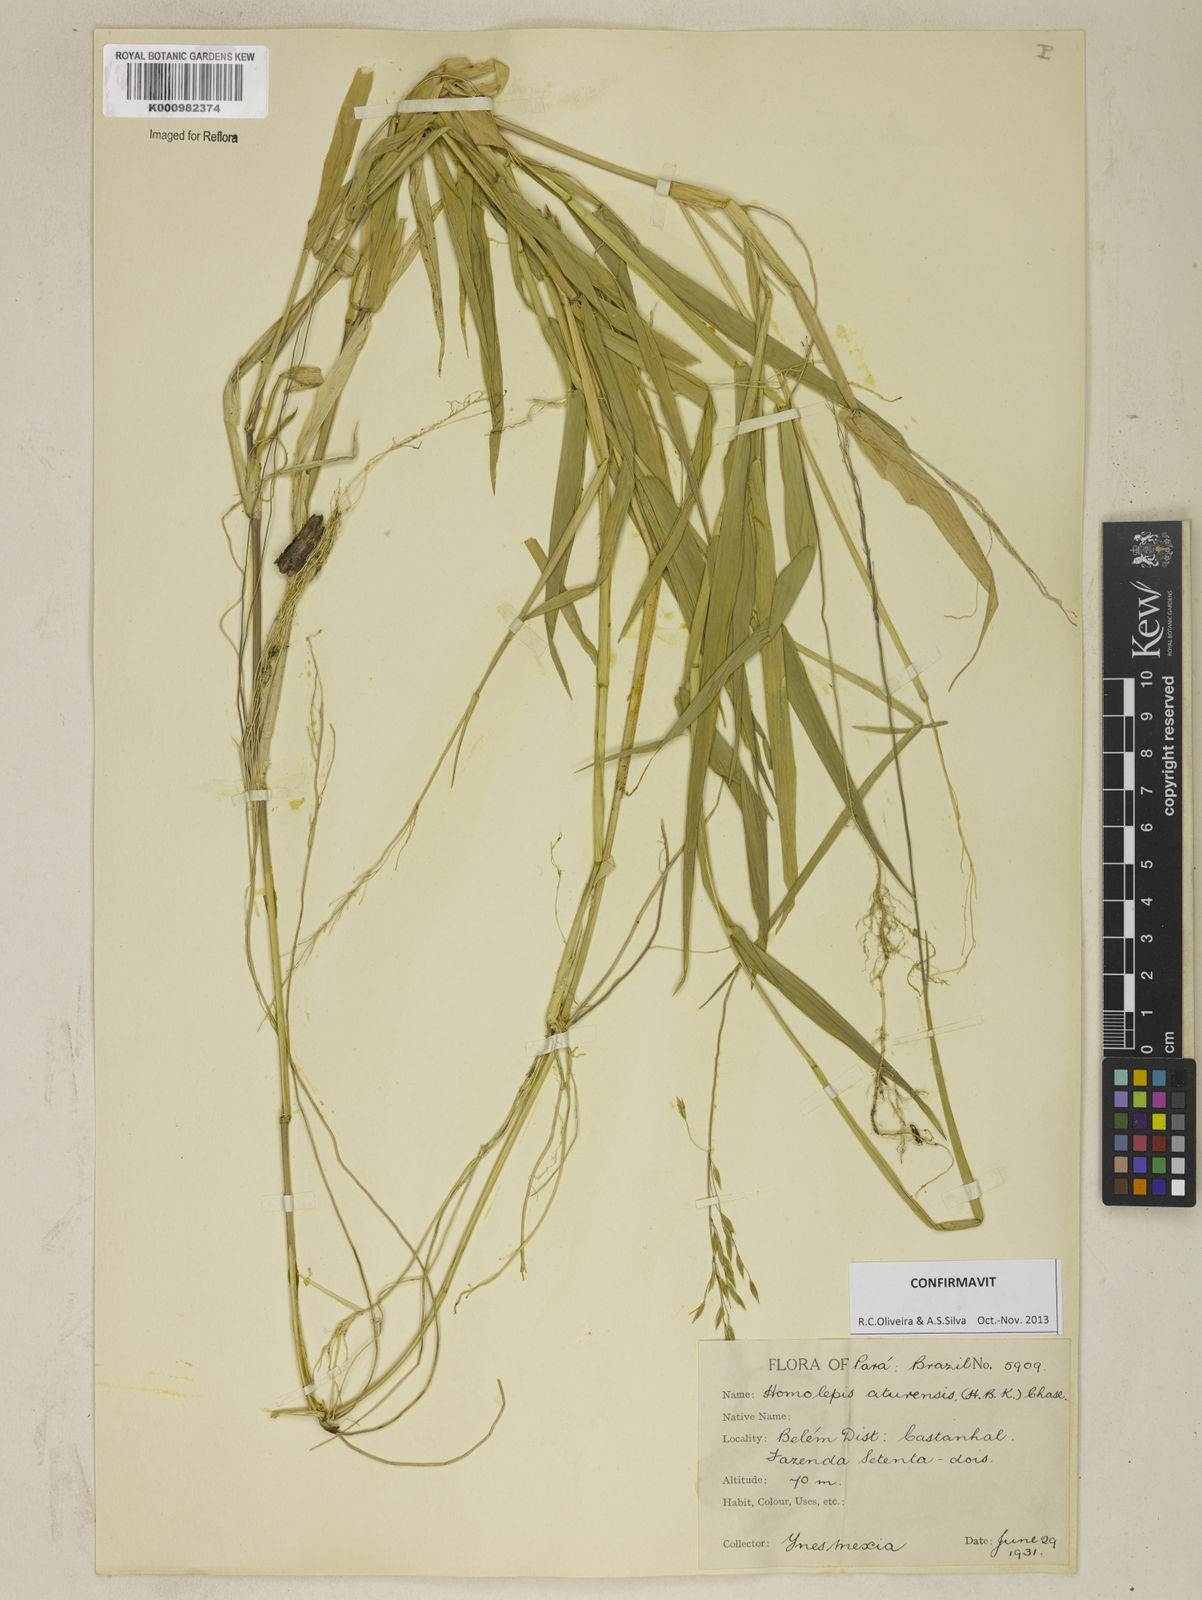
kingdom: Plantae
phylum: Tracheophyta
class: Liliopsida
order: Poales
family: Poaceae
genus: Homolepis
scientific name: Homolepis aturensis
